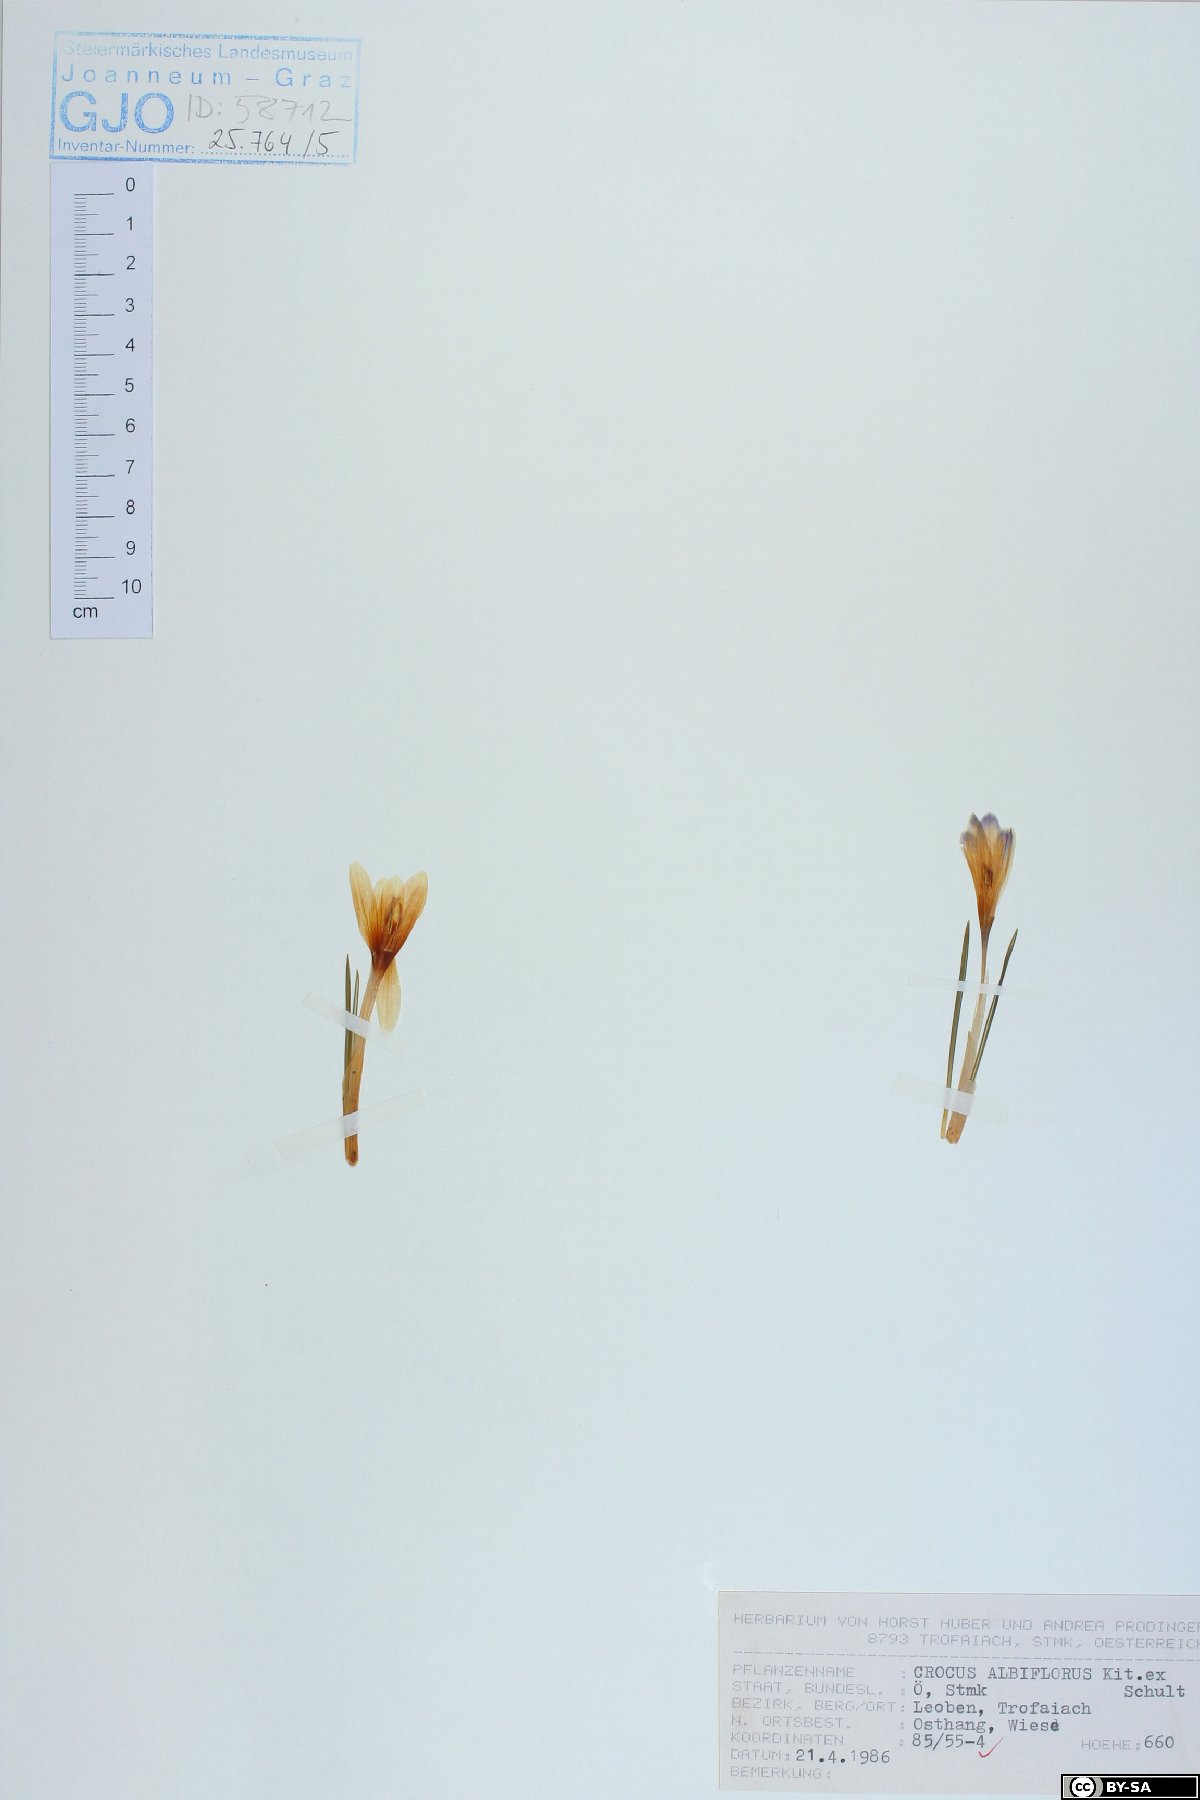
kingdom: Plantae
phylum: Tracheophyta
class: Liliopsida
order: Asparagales
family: Iridaceae
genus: Crocus
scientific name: Crocus vernus
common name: Spring crocus
